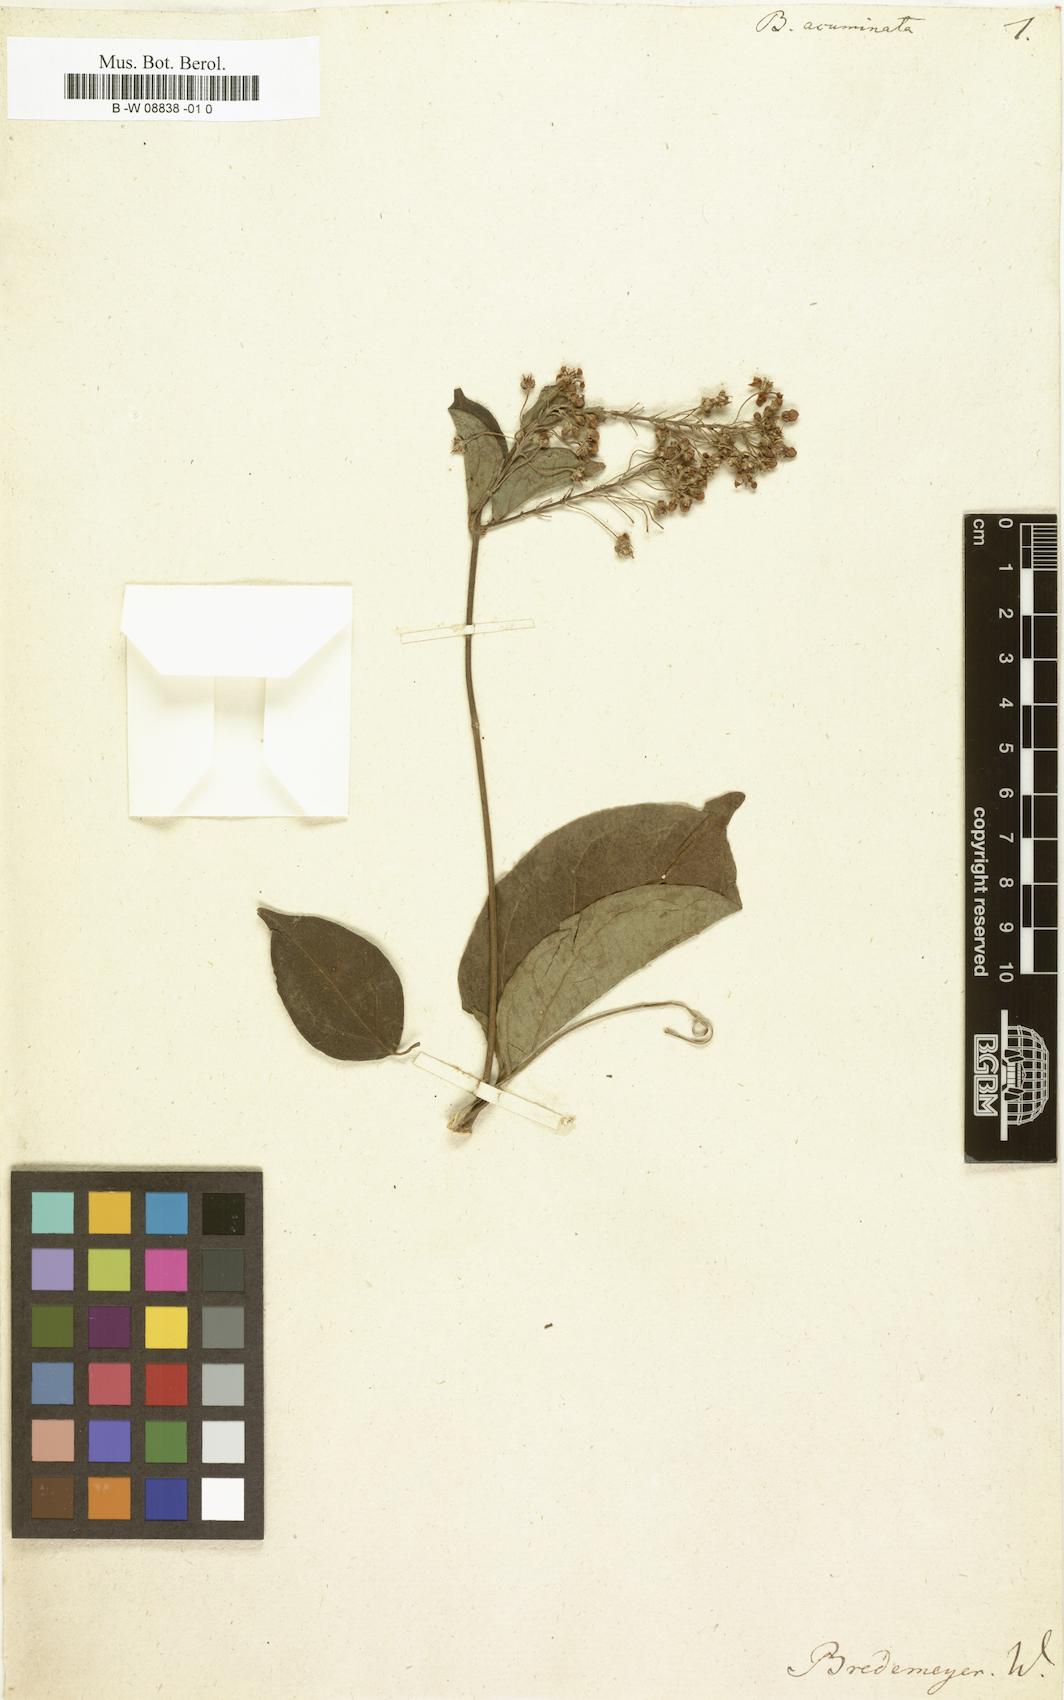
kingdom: Plantae
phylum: Tracheophyta
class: Magnoliopsida
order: Malpighiales
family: Malpighiaceae
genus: Stigmaphyllon
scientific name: Stigmaphyllon albidum
